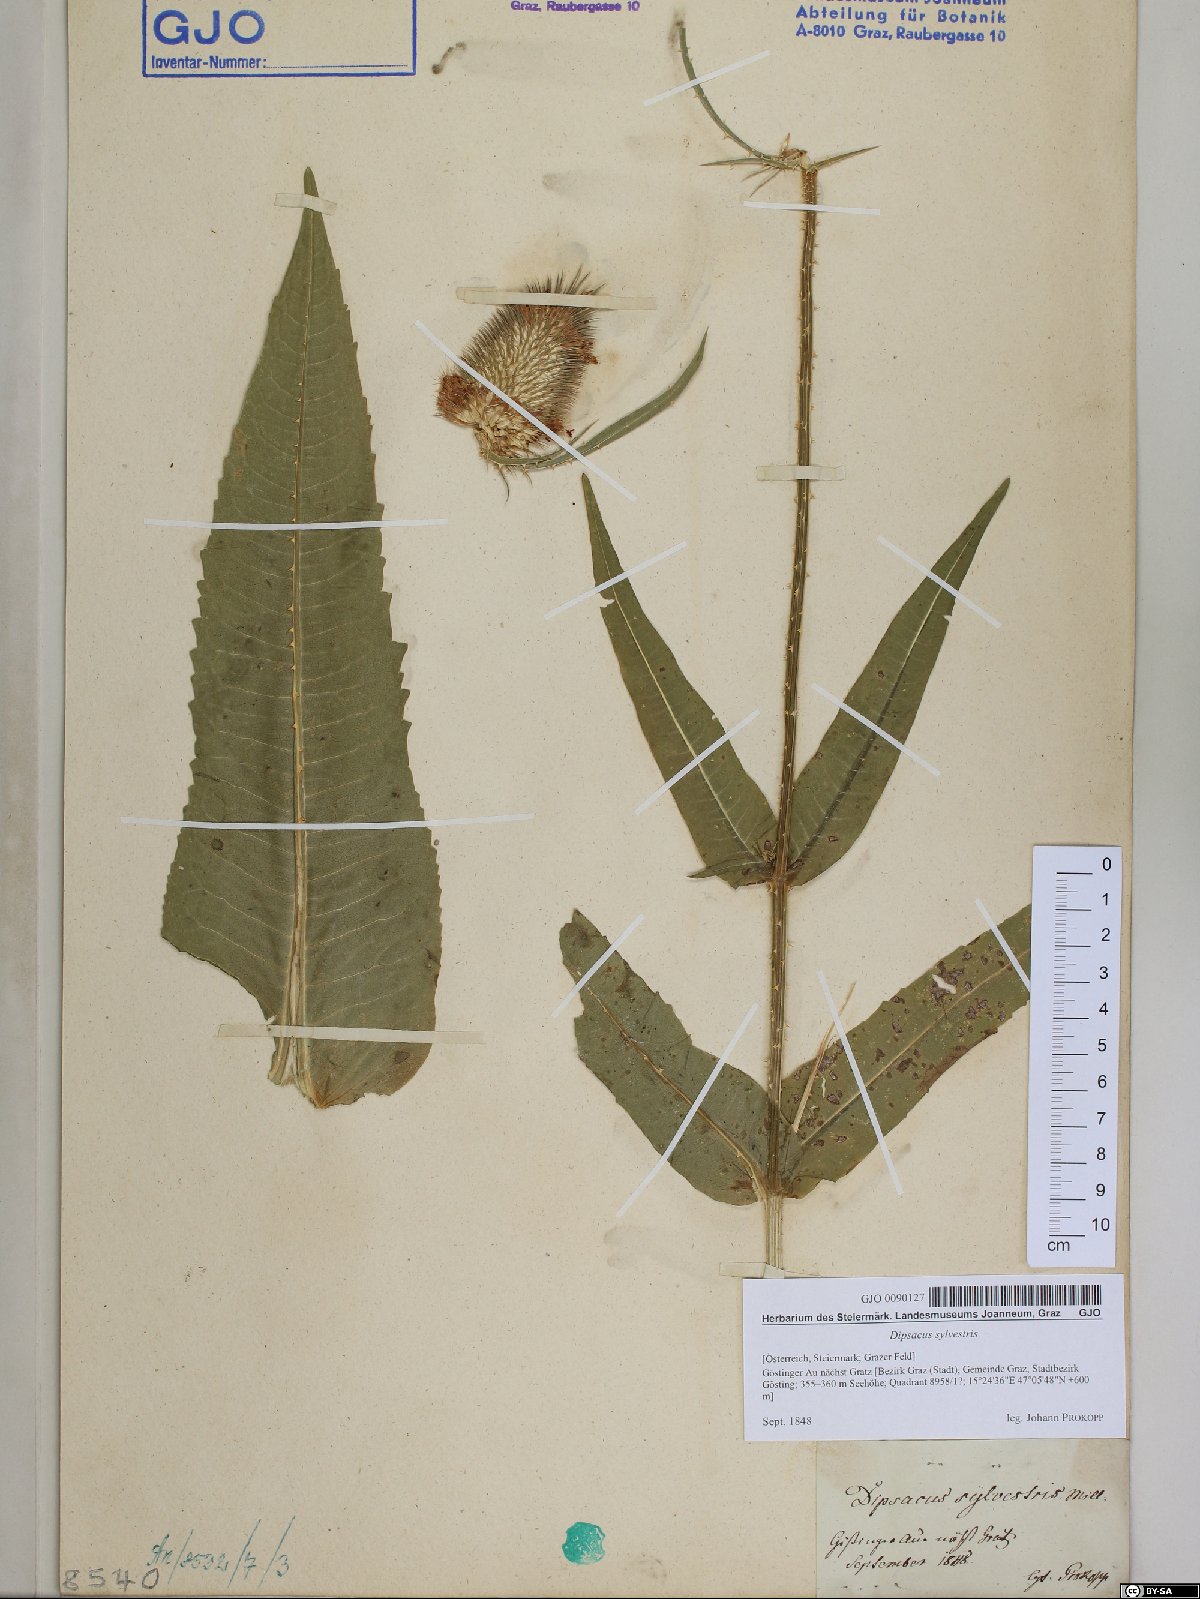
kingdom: Plantae
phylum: Tracheophyta
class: Magnoliopsida
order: Dipsacales
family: Caprifoliaceae
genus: Dipsacus
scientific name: Dipsacus fullonum
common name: Teasel
